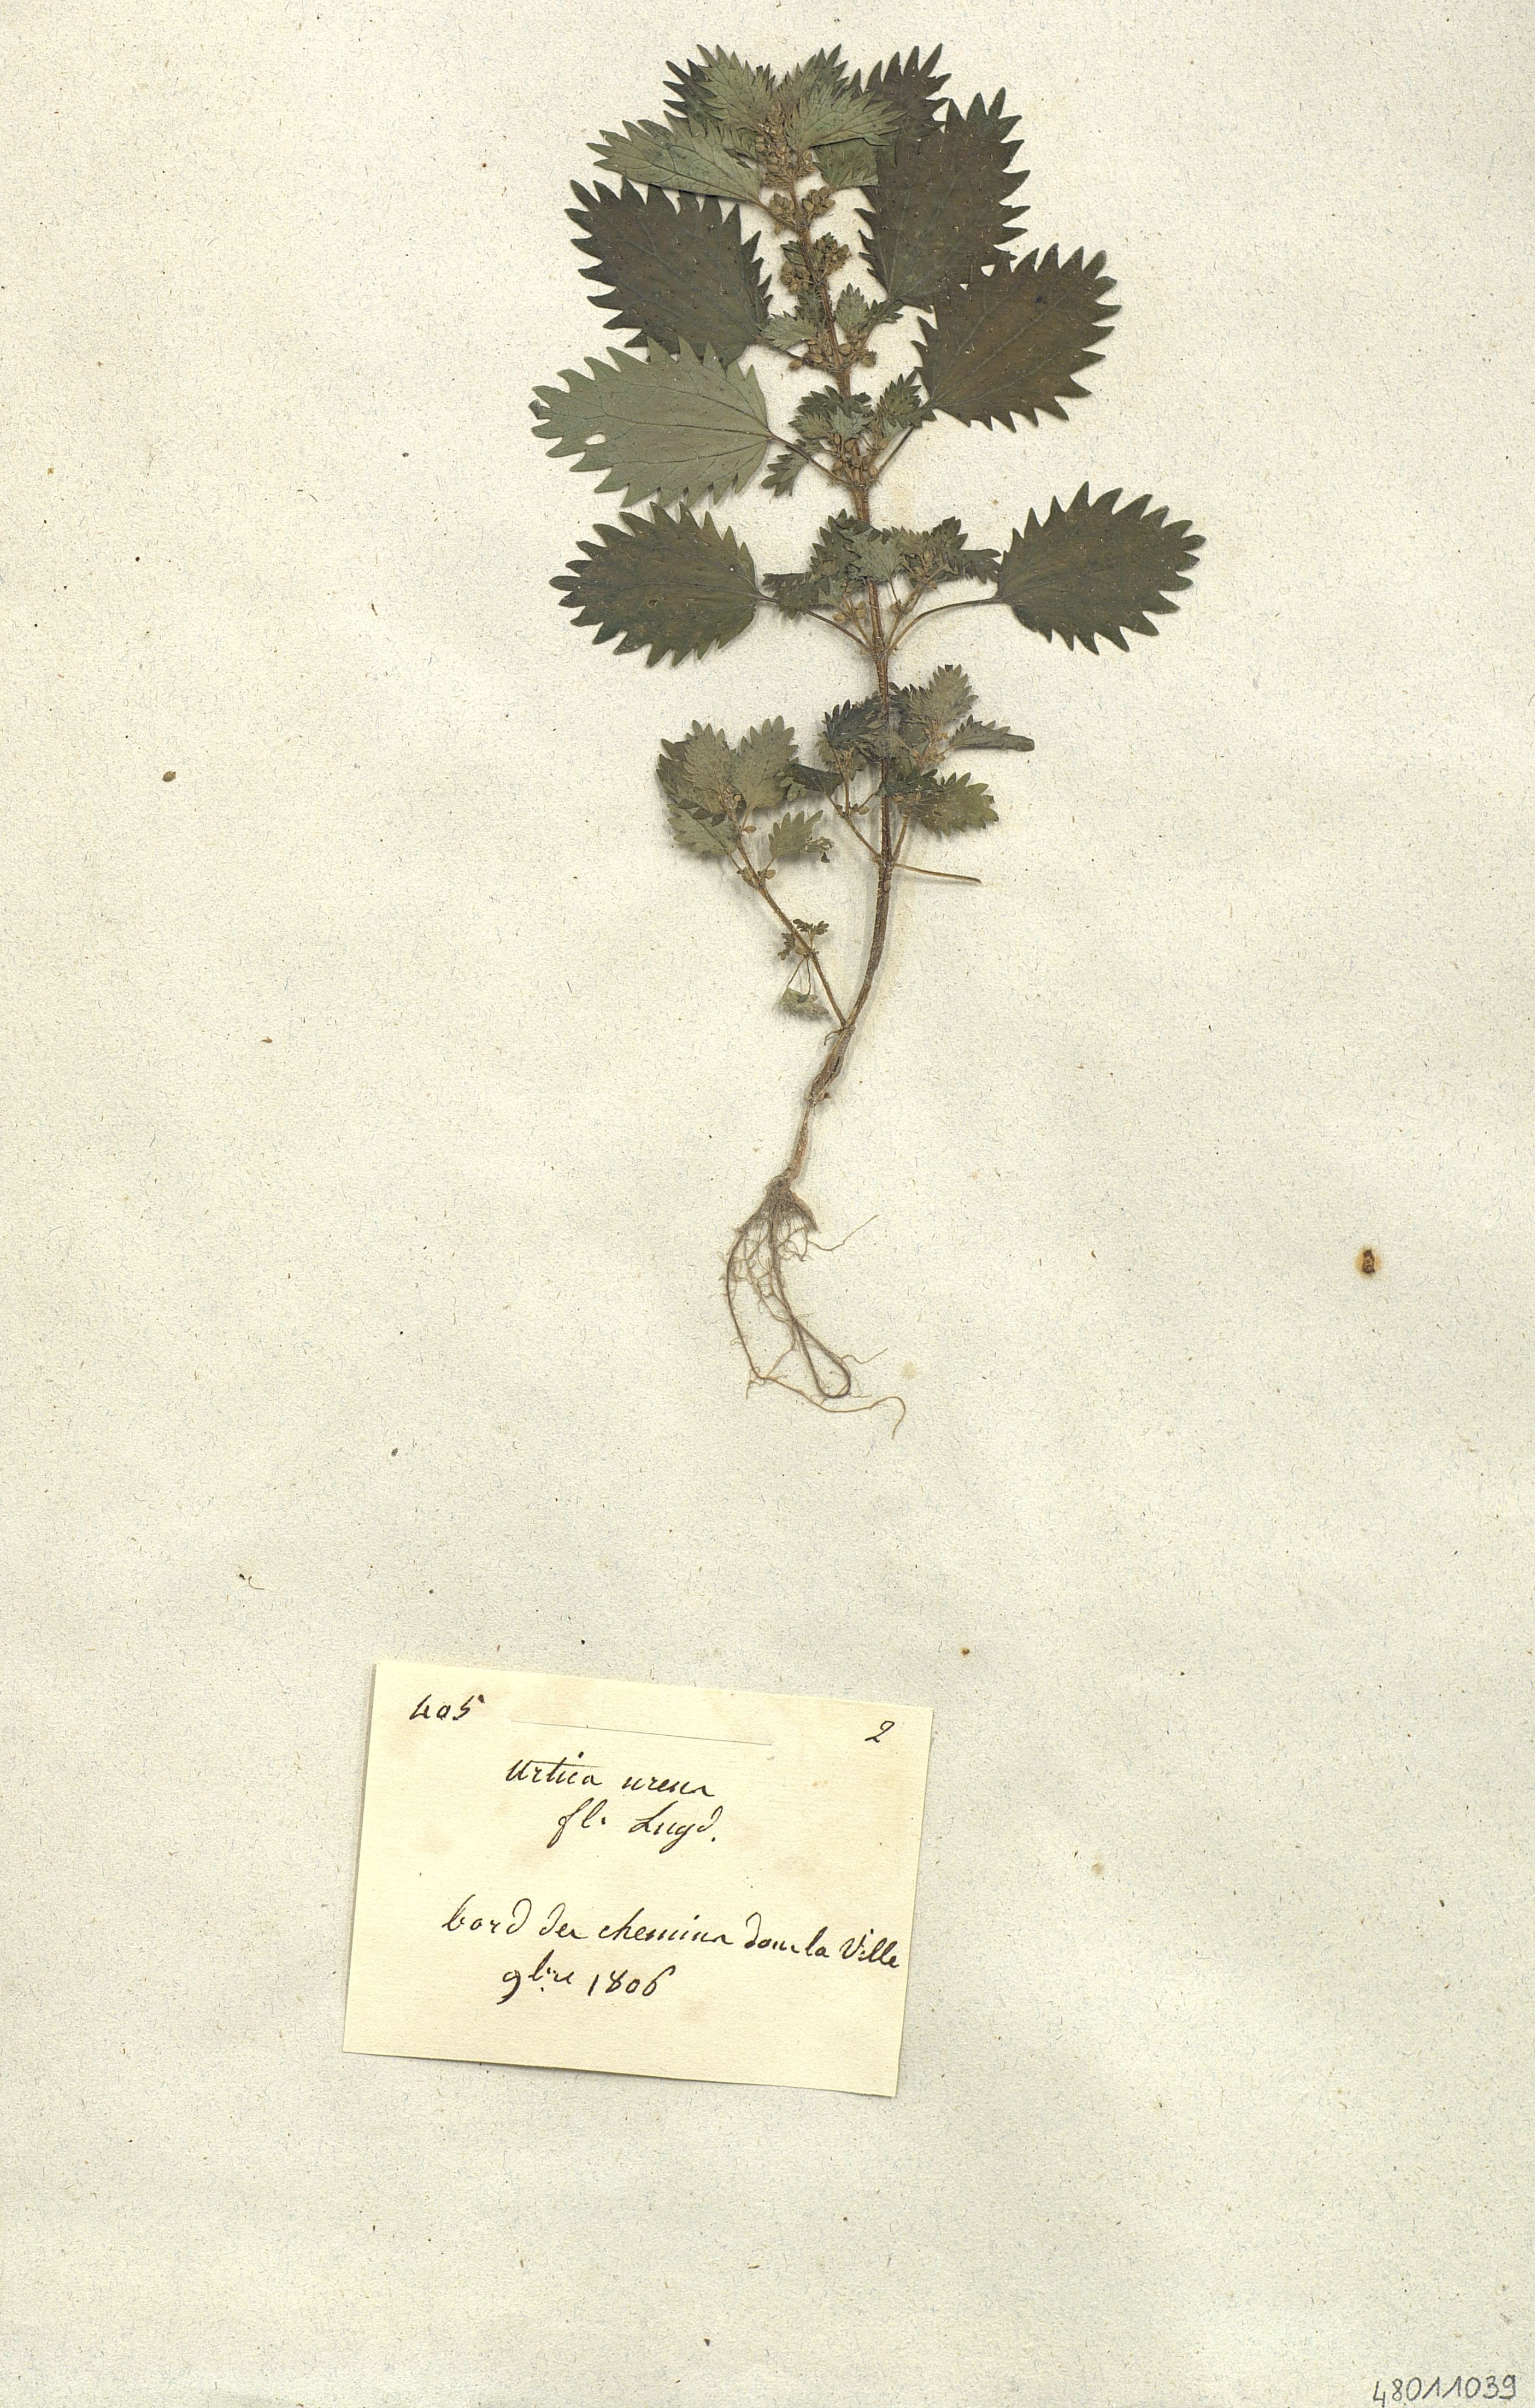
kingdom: Plantae
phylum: Tracheophyta
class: Magnoliopsida
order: Rosales
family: Urticaceae
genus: Urtica
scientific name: Urtica urens
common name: Dwarf nettle
